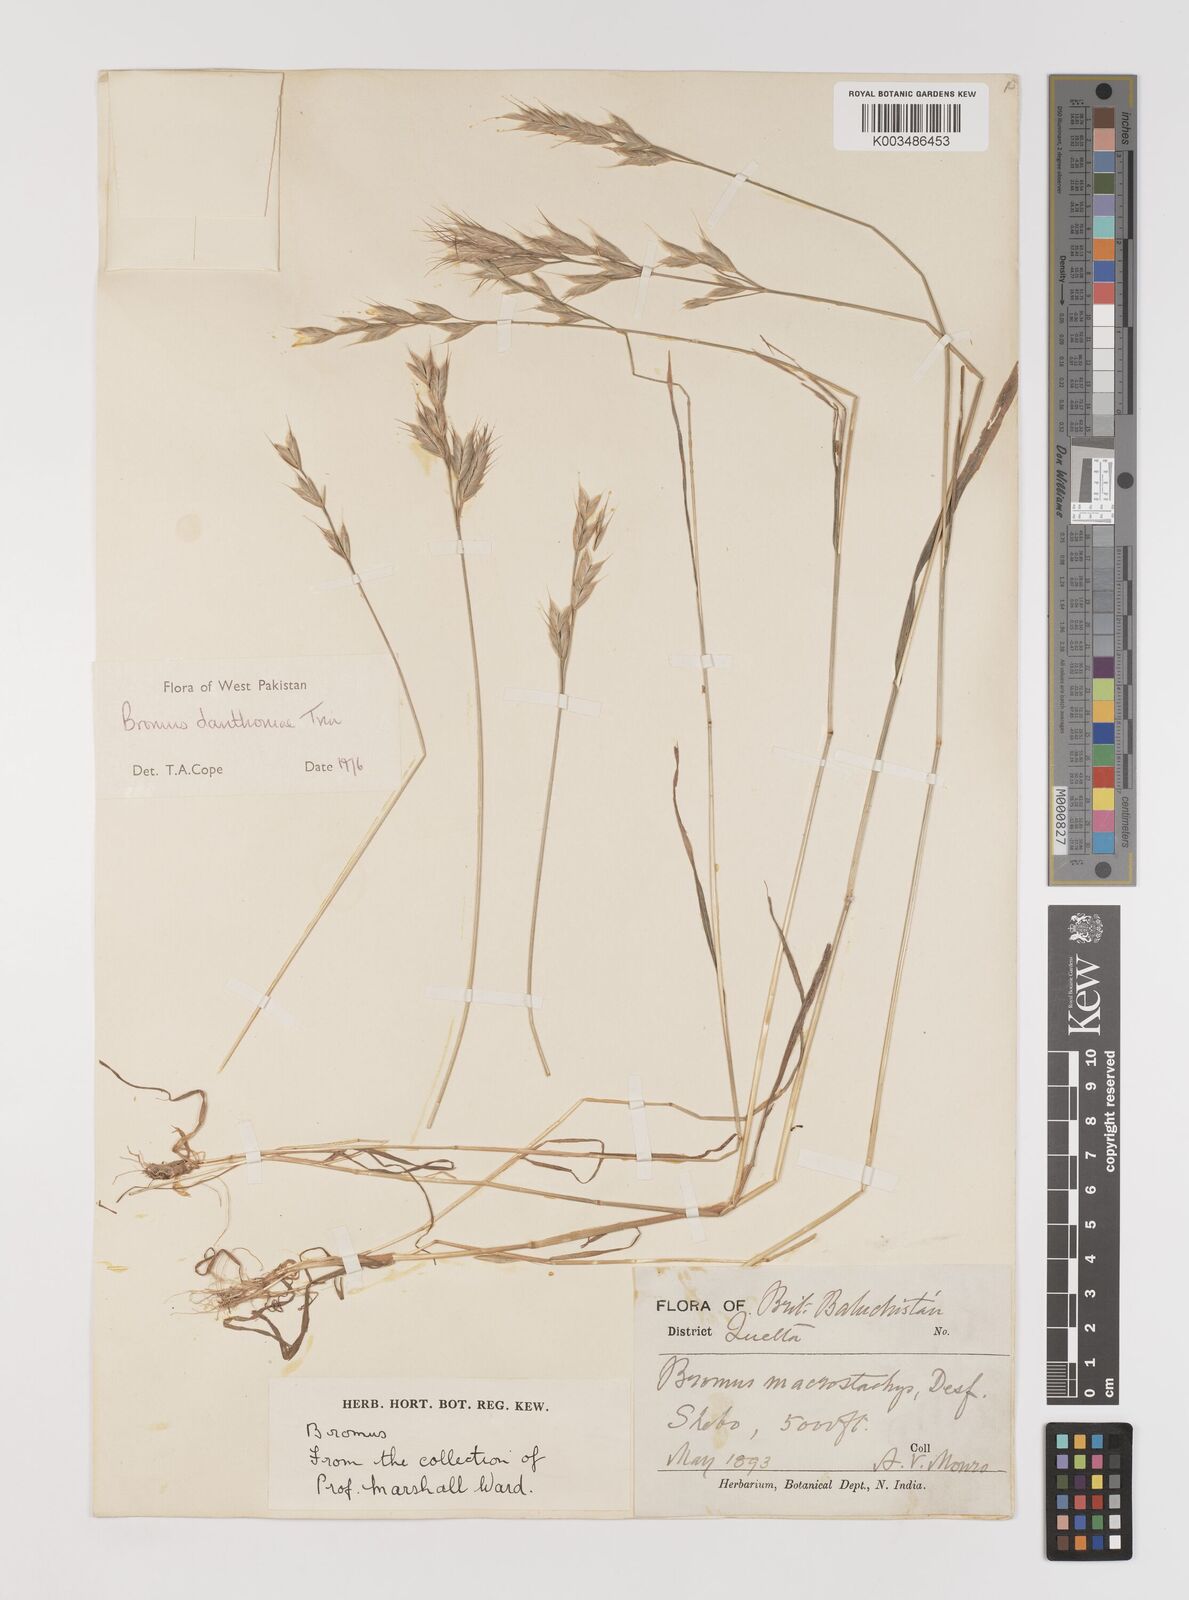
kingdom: Plantae
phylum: Tracheophyta
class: Liliopsida
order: Poales
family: Poaceae
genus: Bromus
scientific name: Bromus danthoniae
